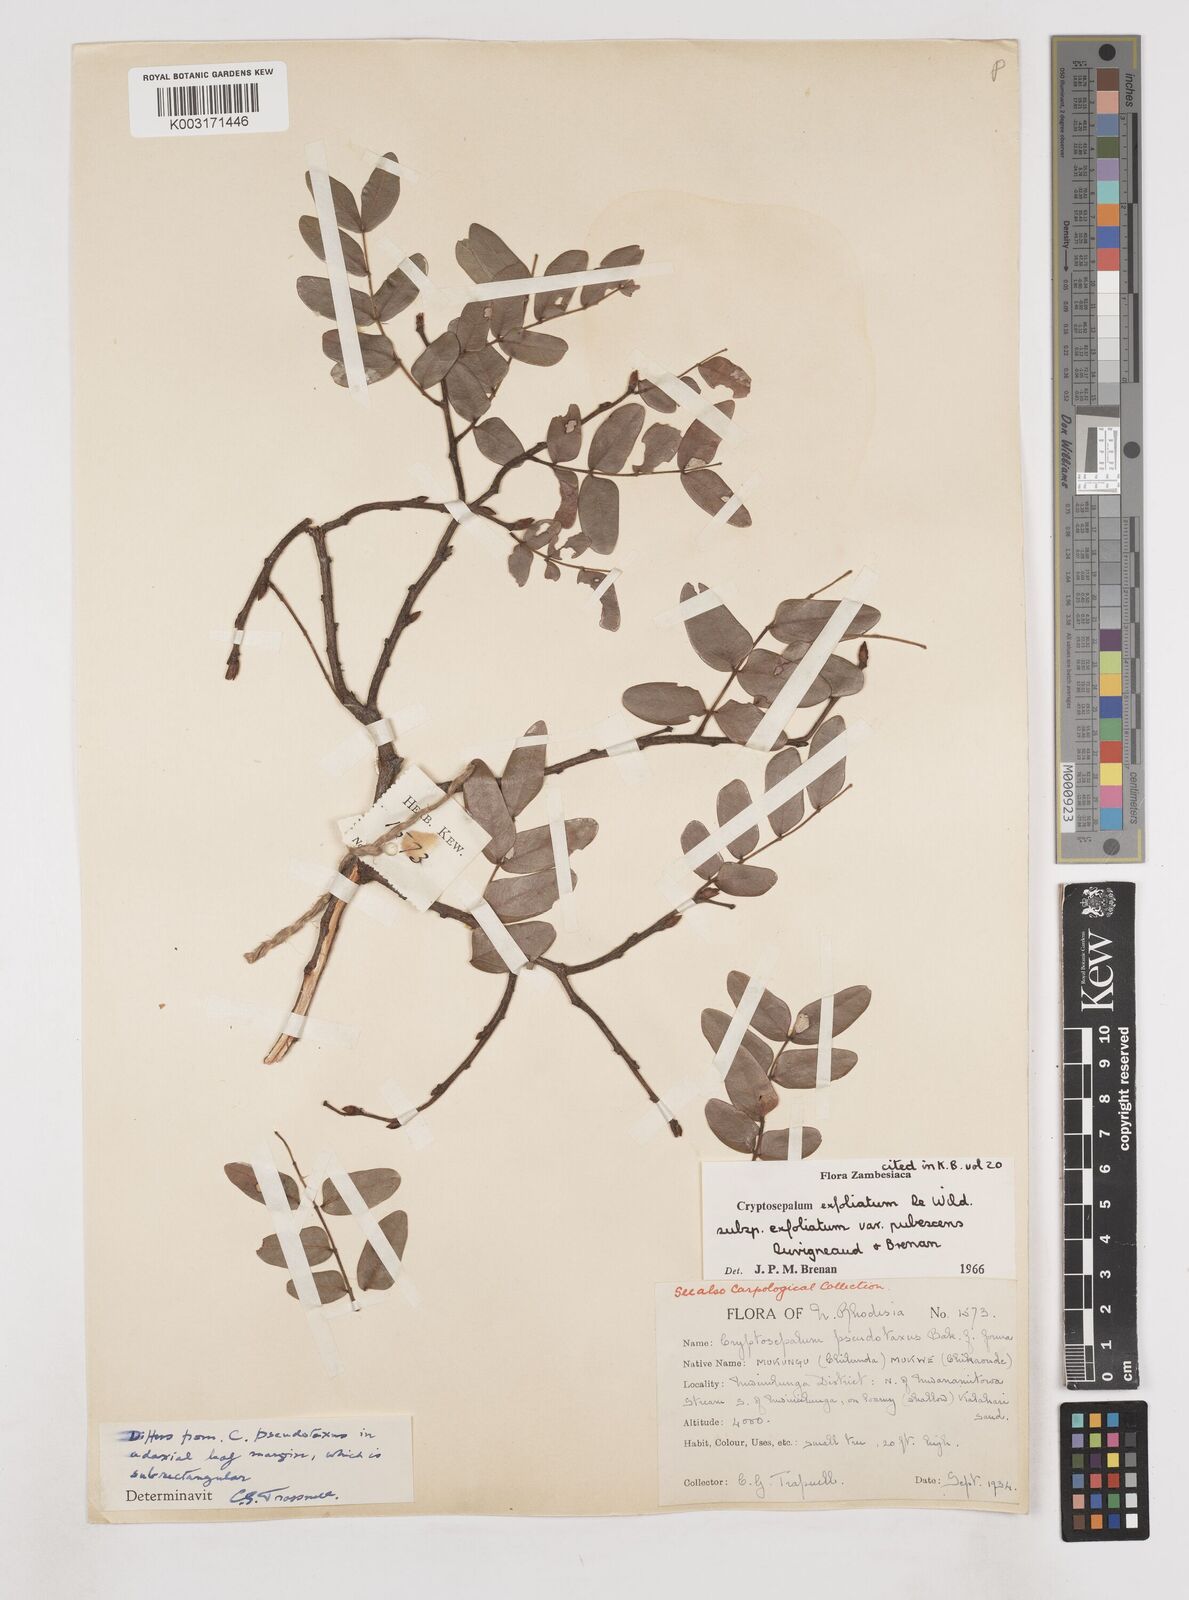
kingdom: Plantae
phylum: Tracheophyta
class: Magnoliopsida
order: Fabales
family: Fabaceae
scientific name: Fabaceae
